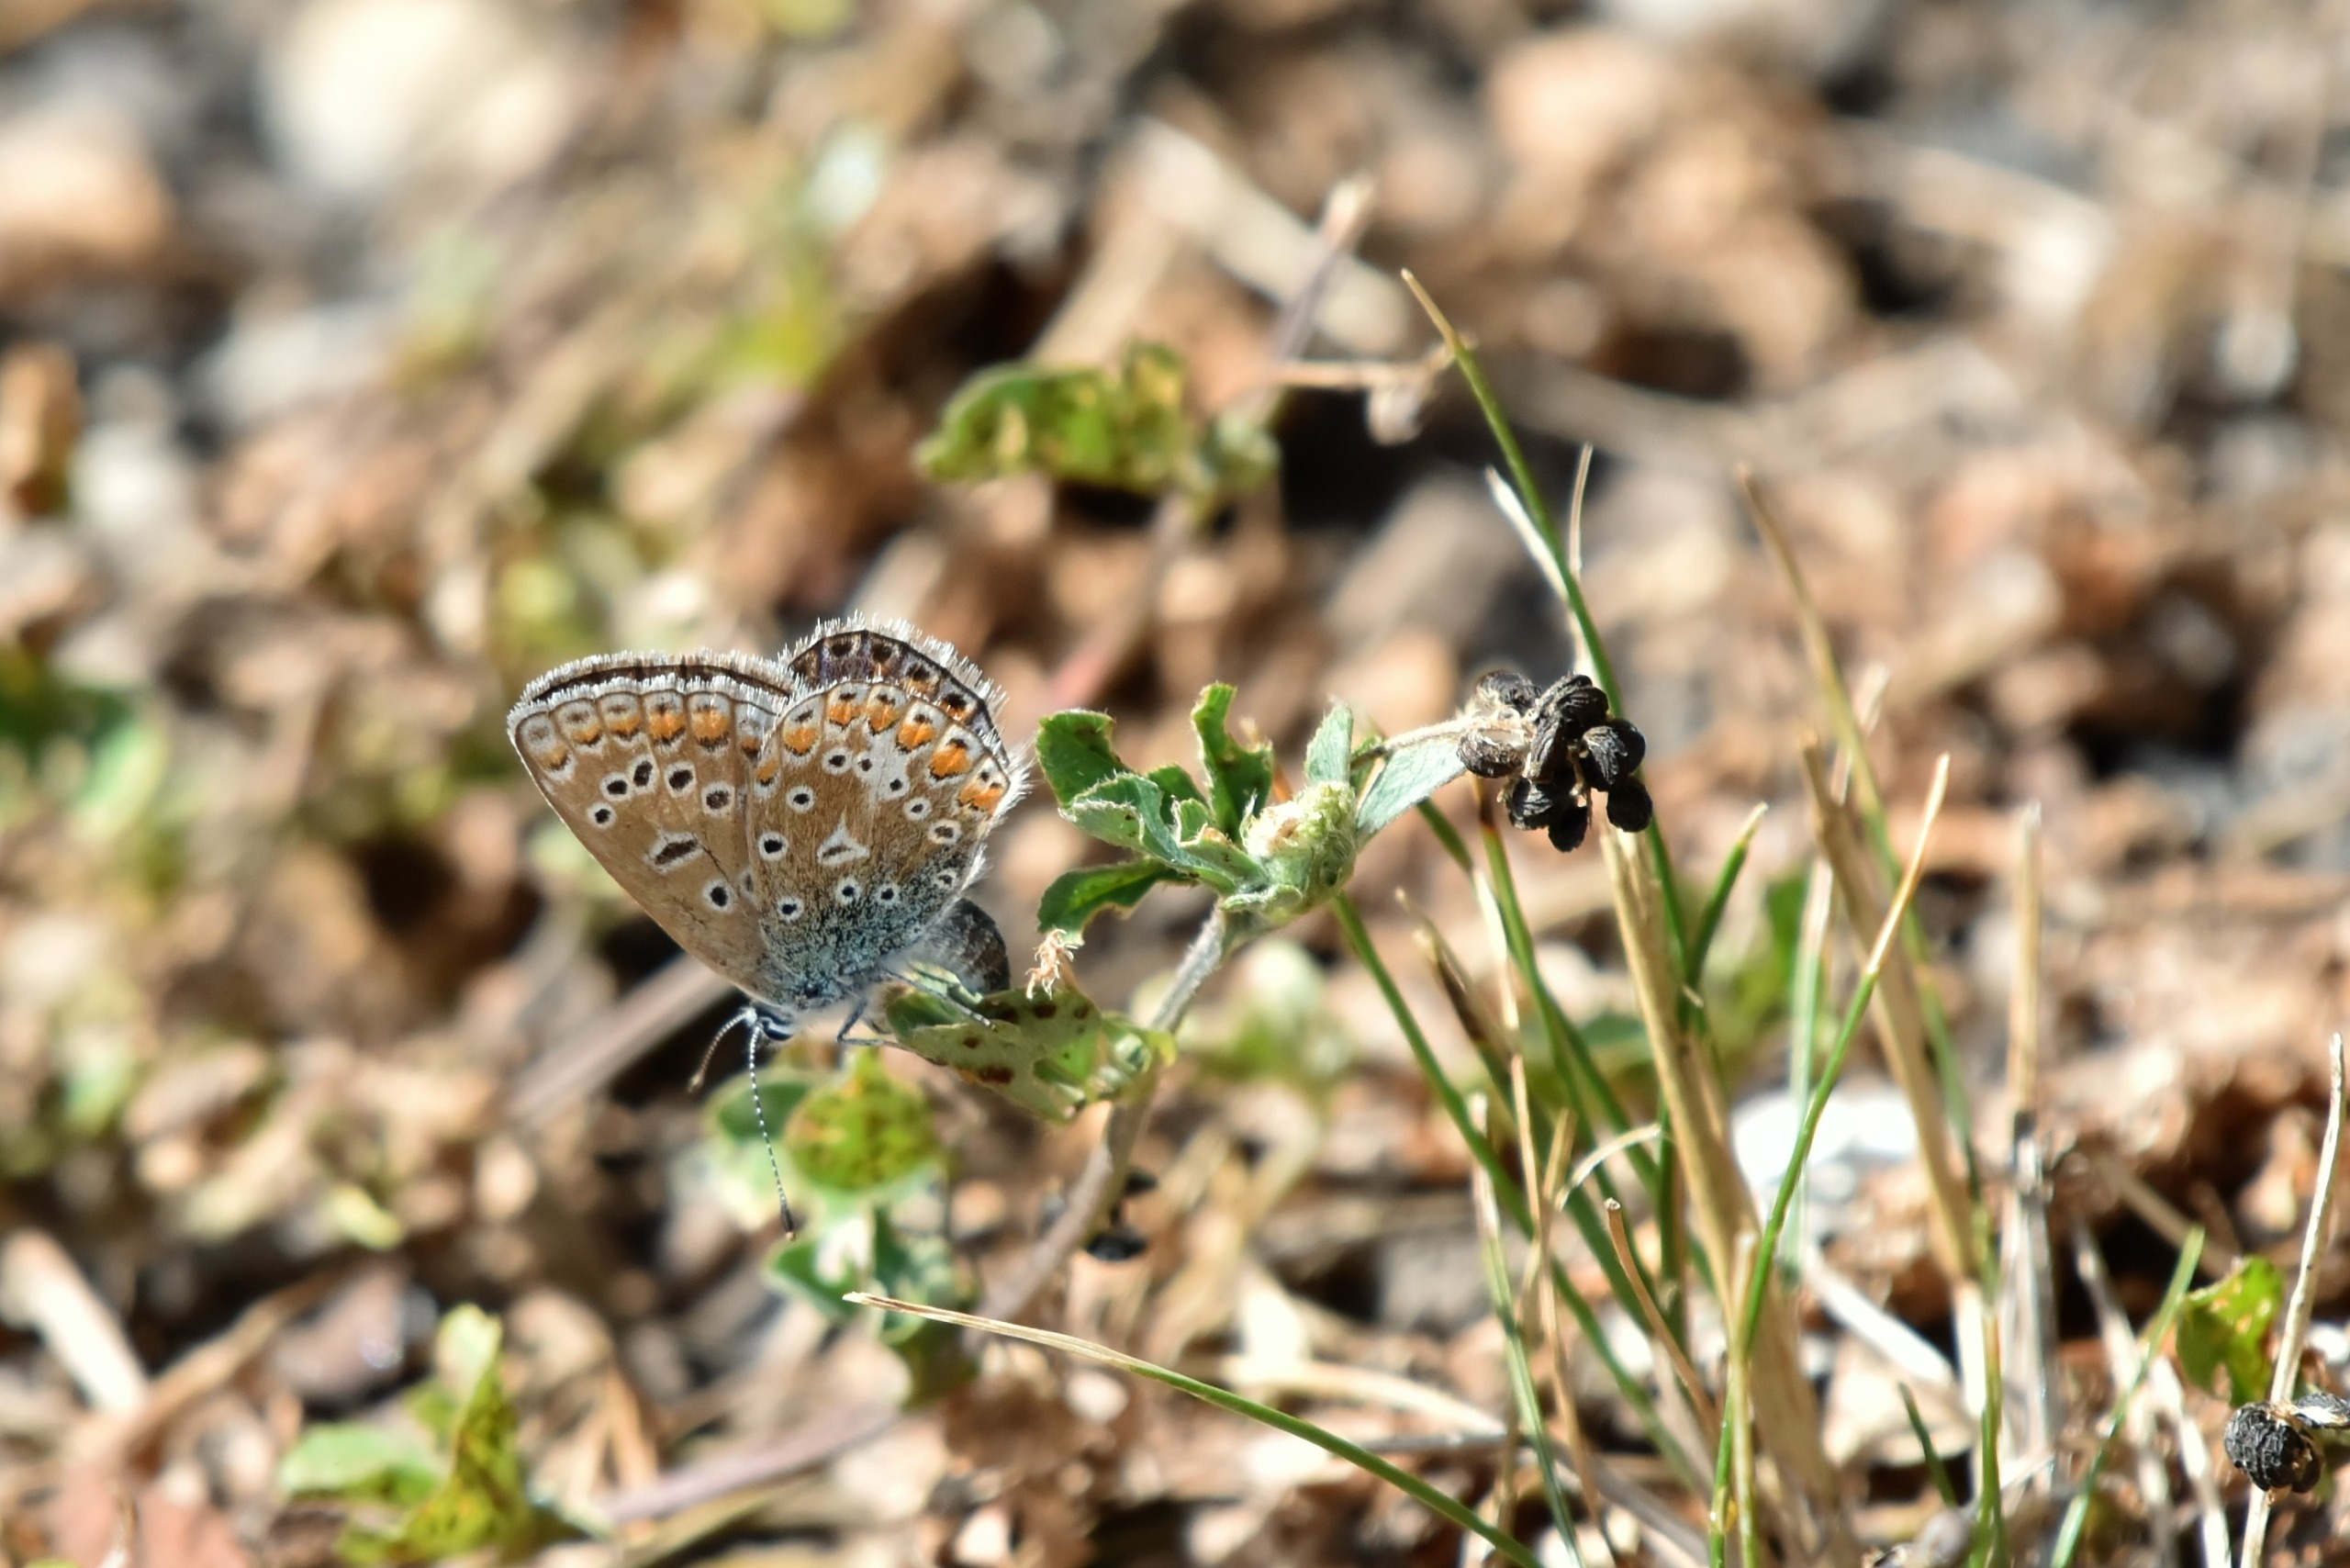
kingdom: Animalia
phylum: Arthropoda
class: Insecta
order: Lepidoptera
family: Lycaenidae
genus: Polyommatus
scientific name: Polyommatus icarus
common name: Almindelig blåfugl
